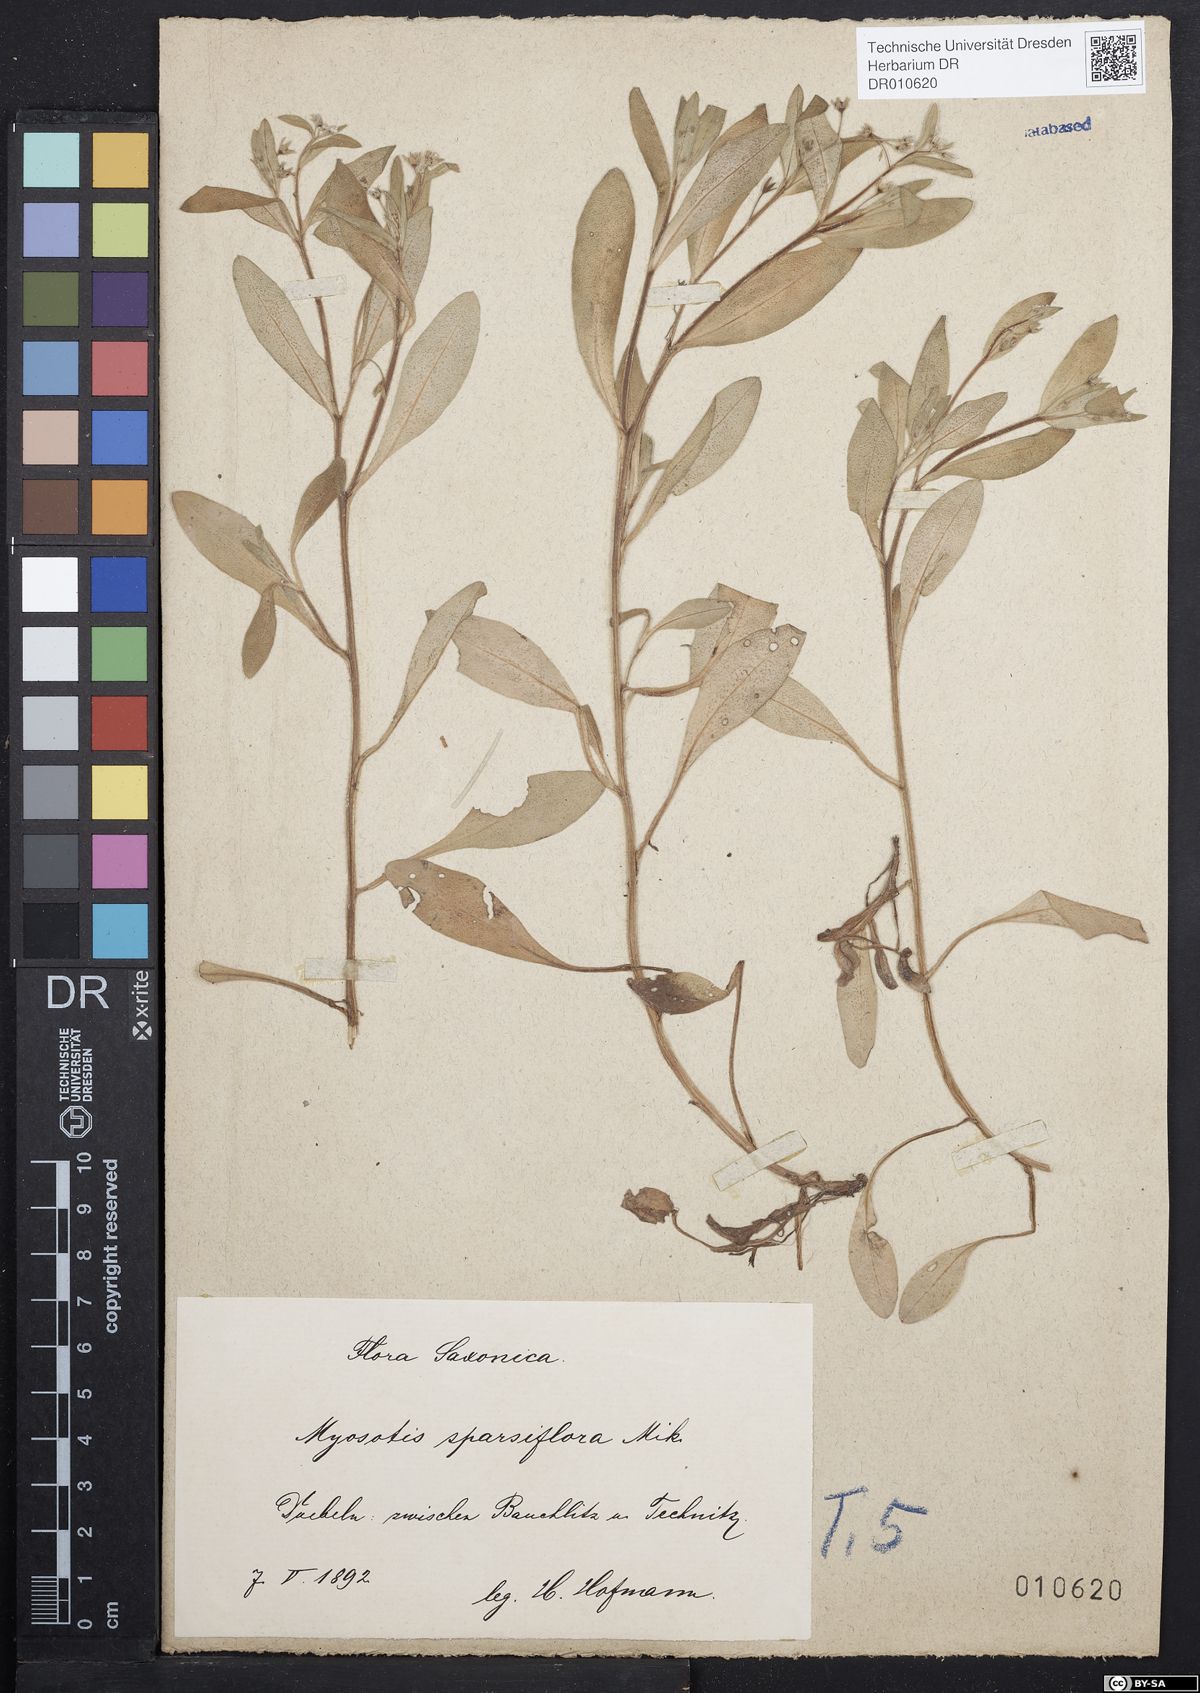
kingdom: Plantae
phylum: Tracheophyta
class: Magnoliopsida
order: Boraginales
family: Boraginaceae
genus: Myosotis
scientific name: Myosotis sparsiflora
